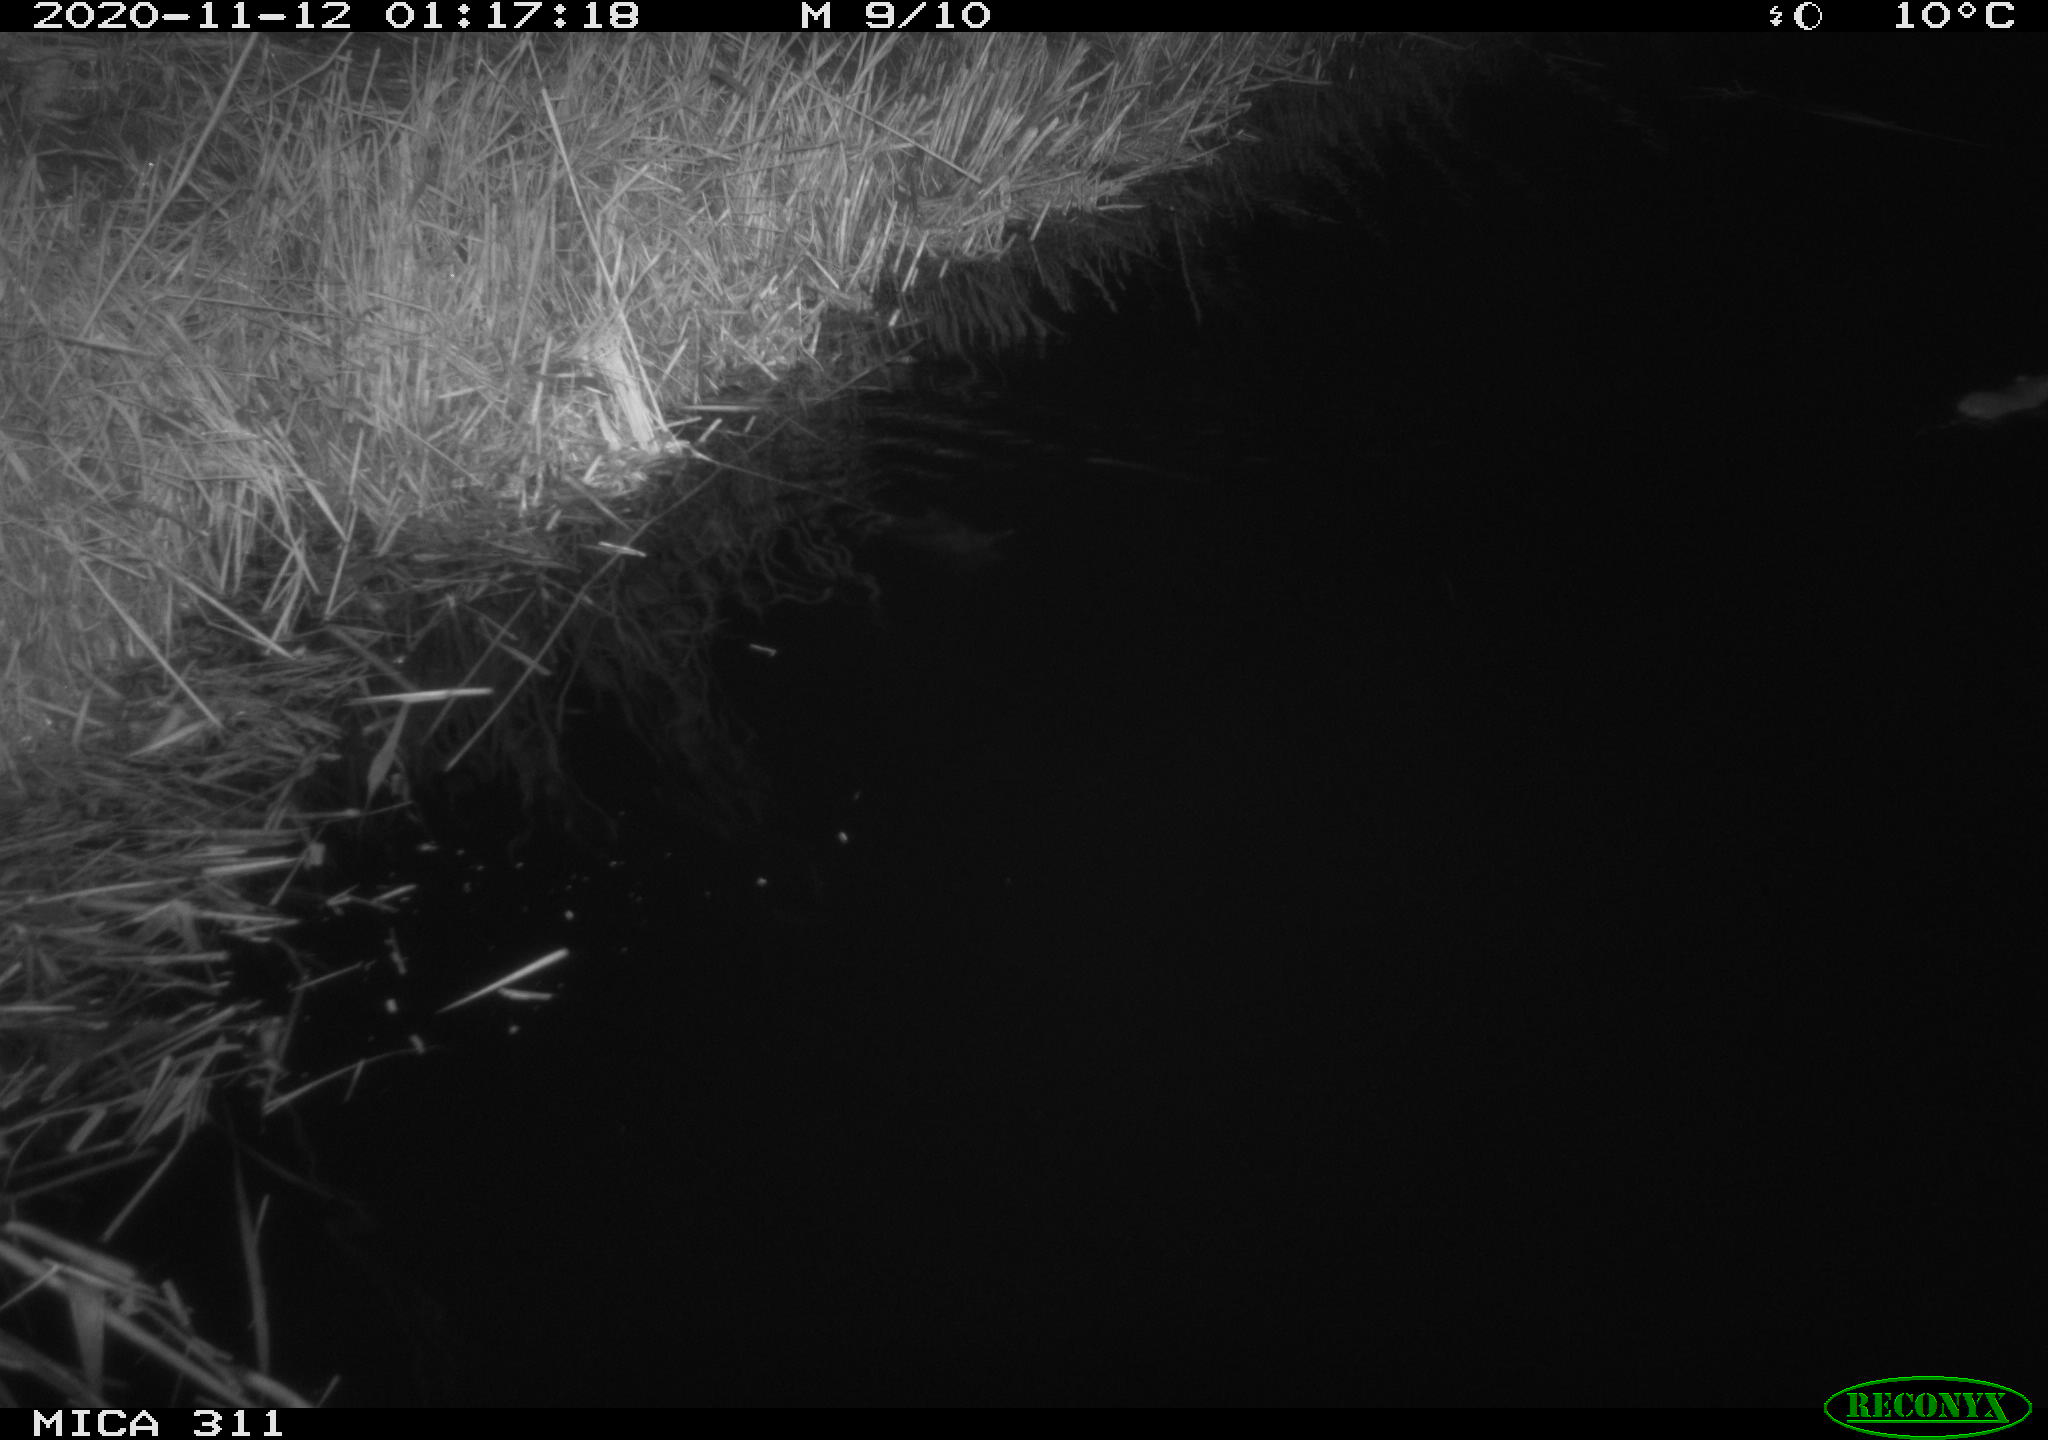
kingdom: Animalia
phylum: Chordata
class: Mammalia
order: Rodentia
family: Muridae
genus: Rattus
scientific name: Rattus norvegicus
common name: Brown rat
